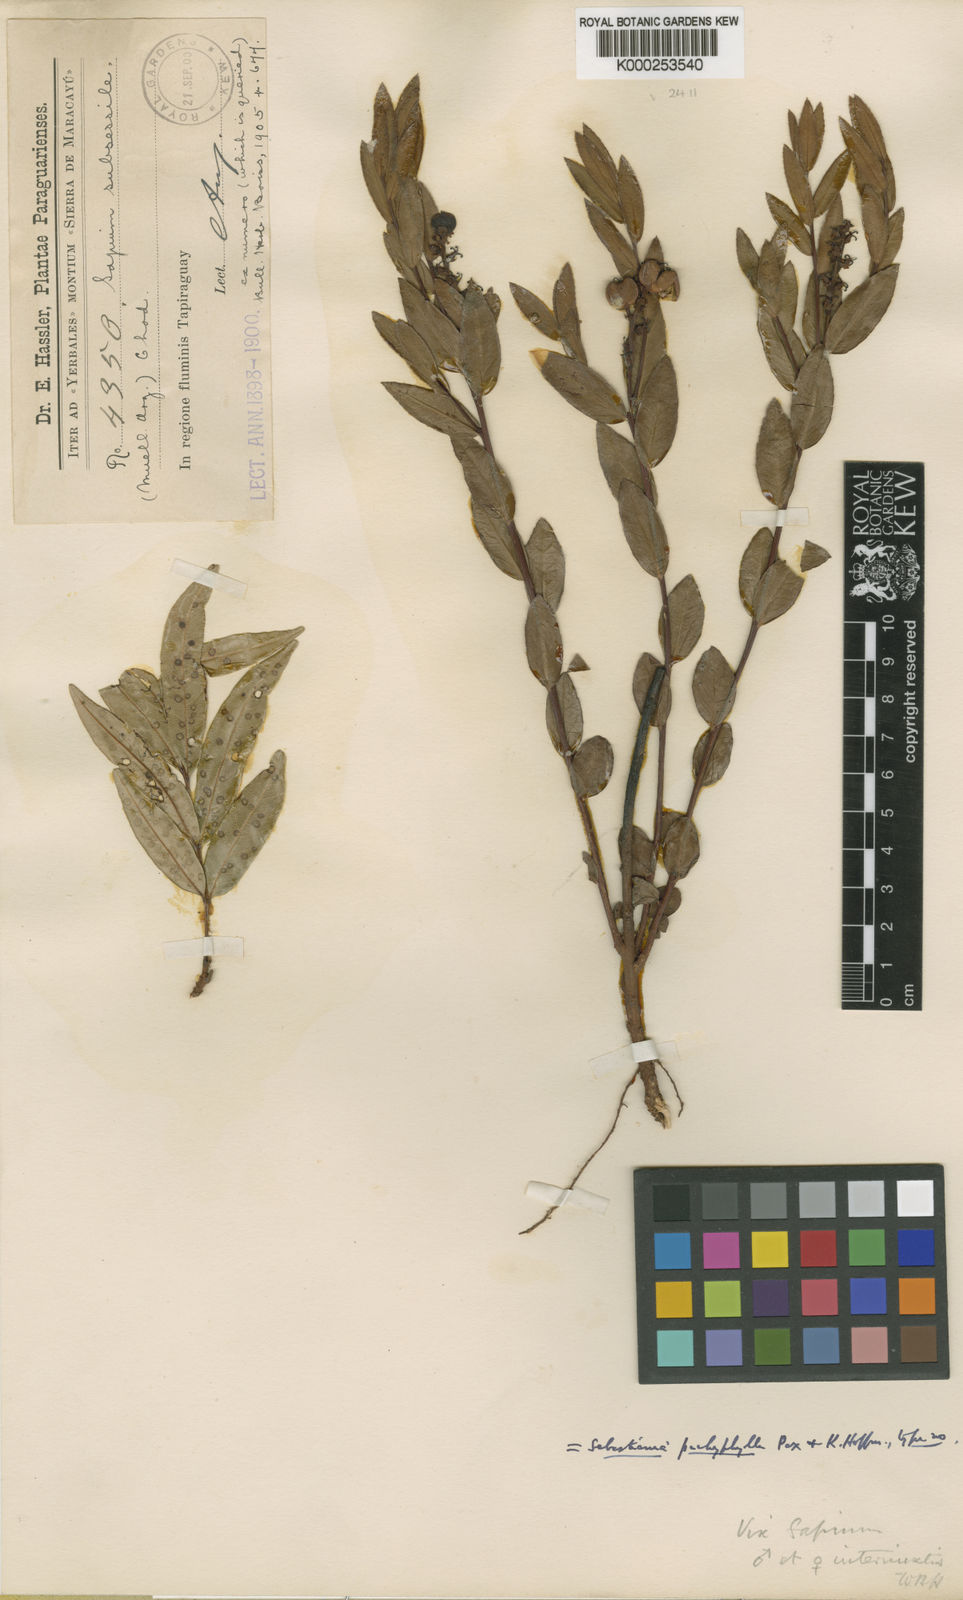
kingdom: Plantae
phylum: Tracheophyta
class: Magnoliopsida
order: Malpighiales
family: Euphorbiaceae
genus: Sebastiania
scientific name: Sebastiania
